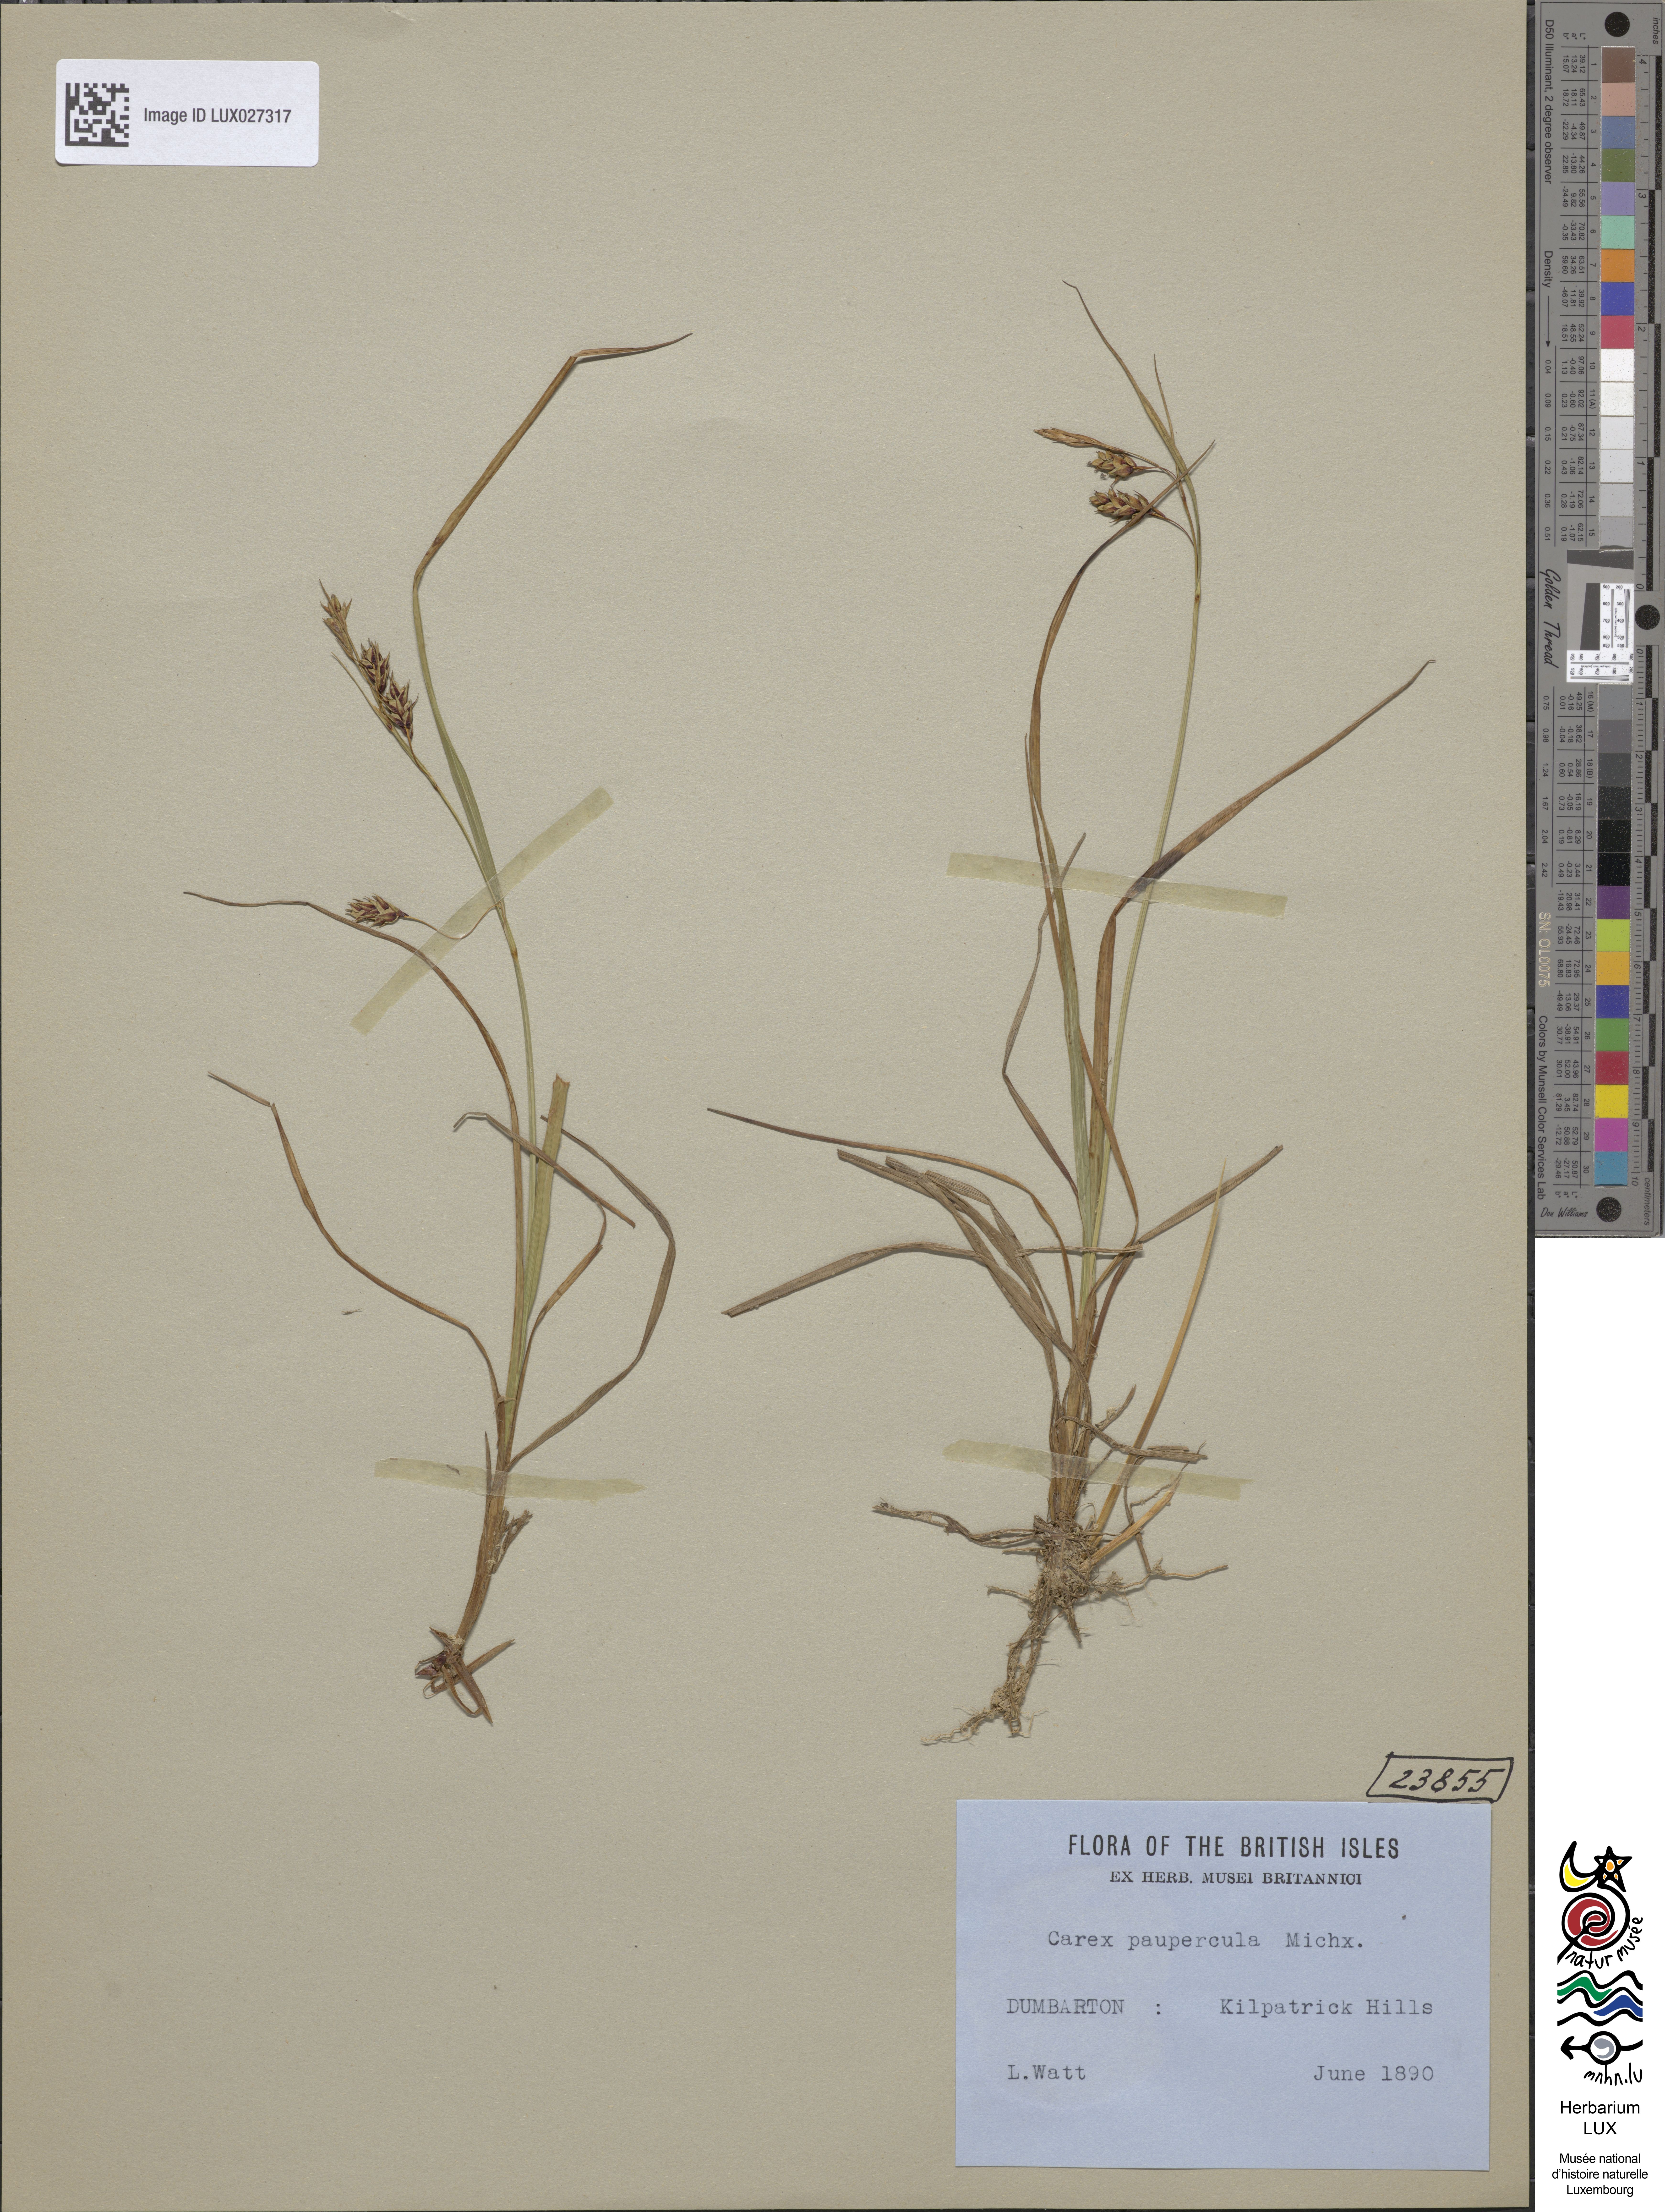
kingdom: Plantae
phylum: Tracheophyta
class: Liliopsida
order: Poales
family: Cyperaceae
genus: Carex
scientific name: Carex magellanica
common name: Bog sedge
